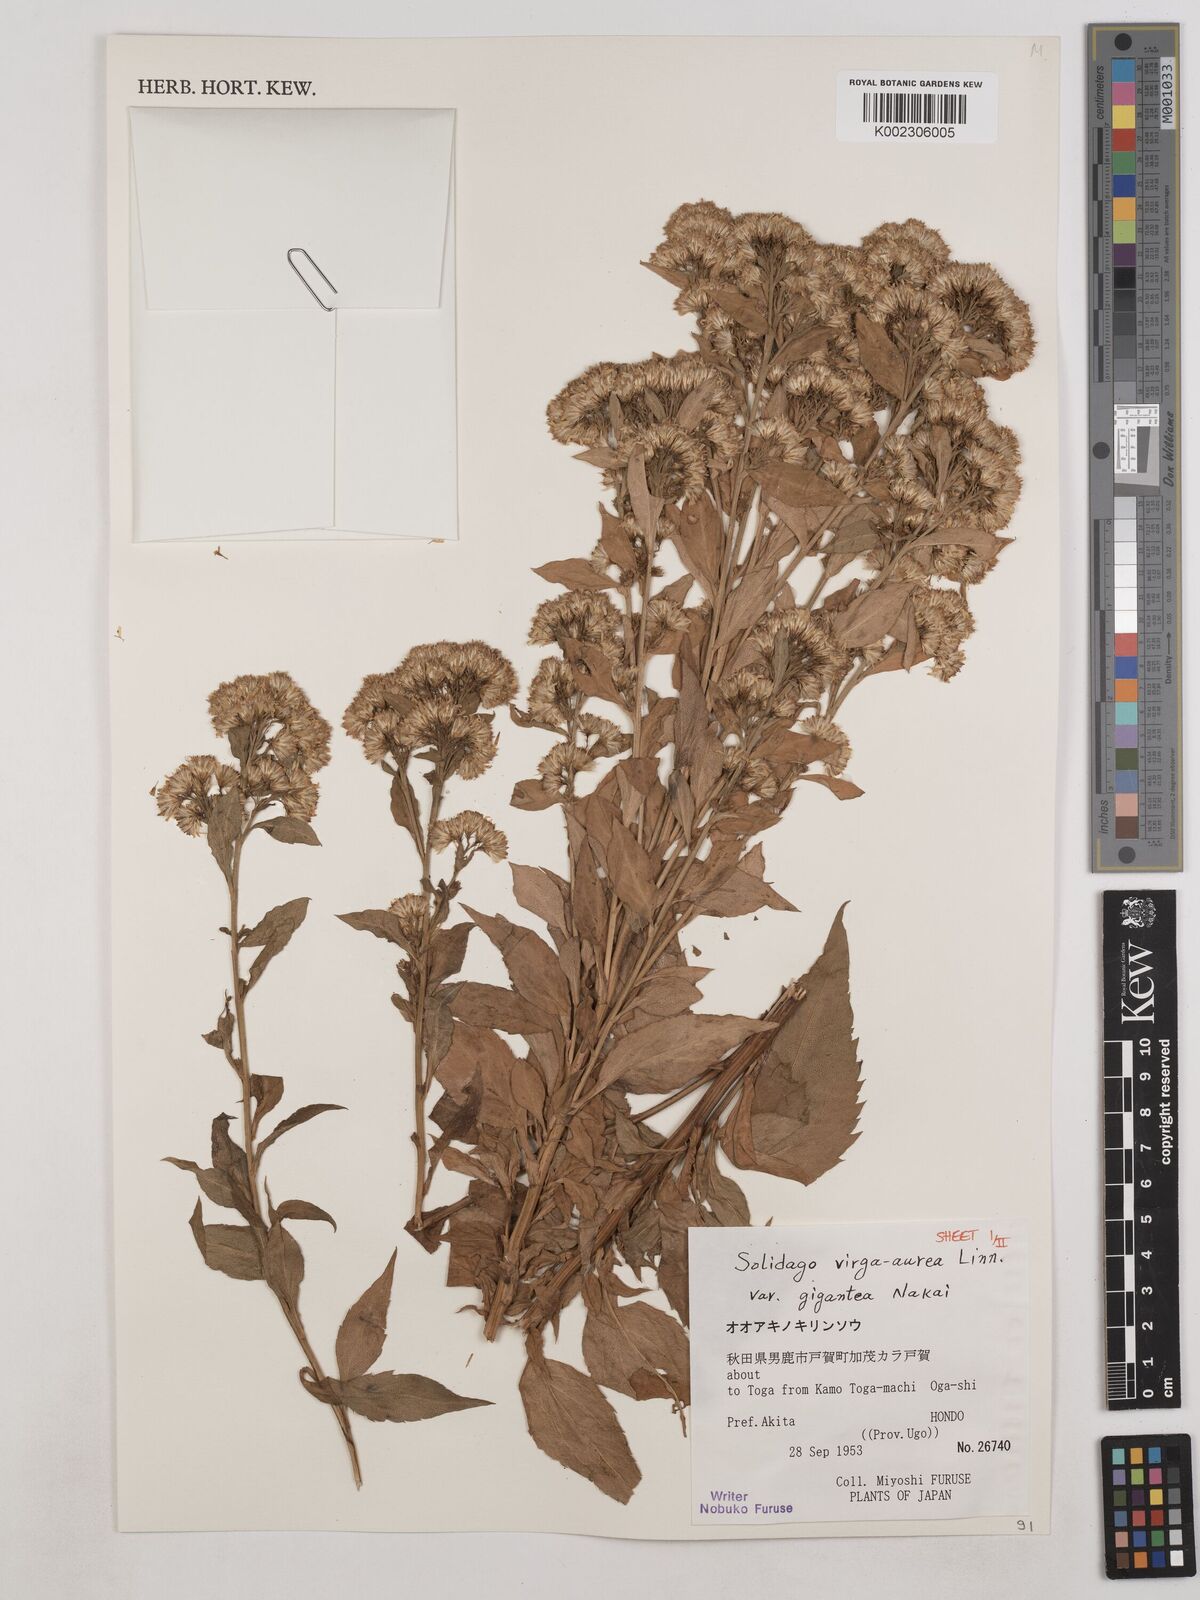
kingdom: Plantae
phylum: Tracheophyta
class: Magnoliopsida
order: Asterales
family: Asteraceae
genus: Solidago
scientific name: Solidago nipponica
